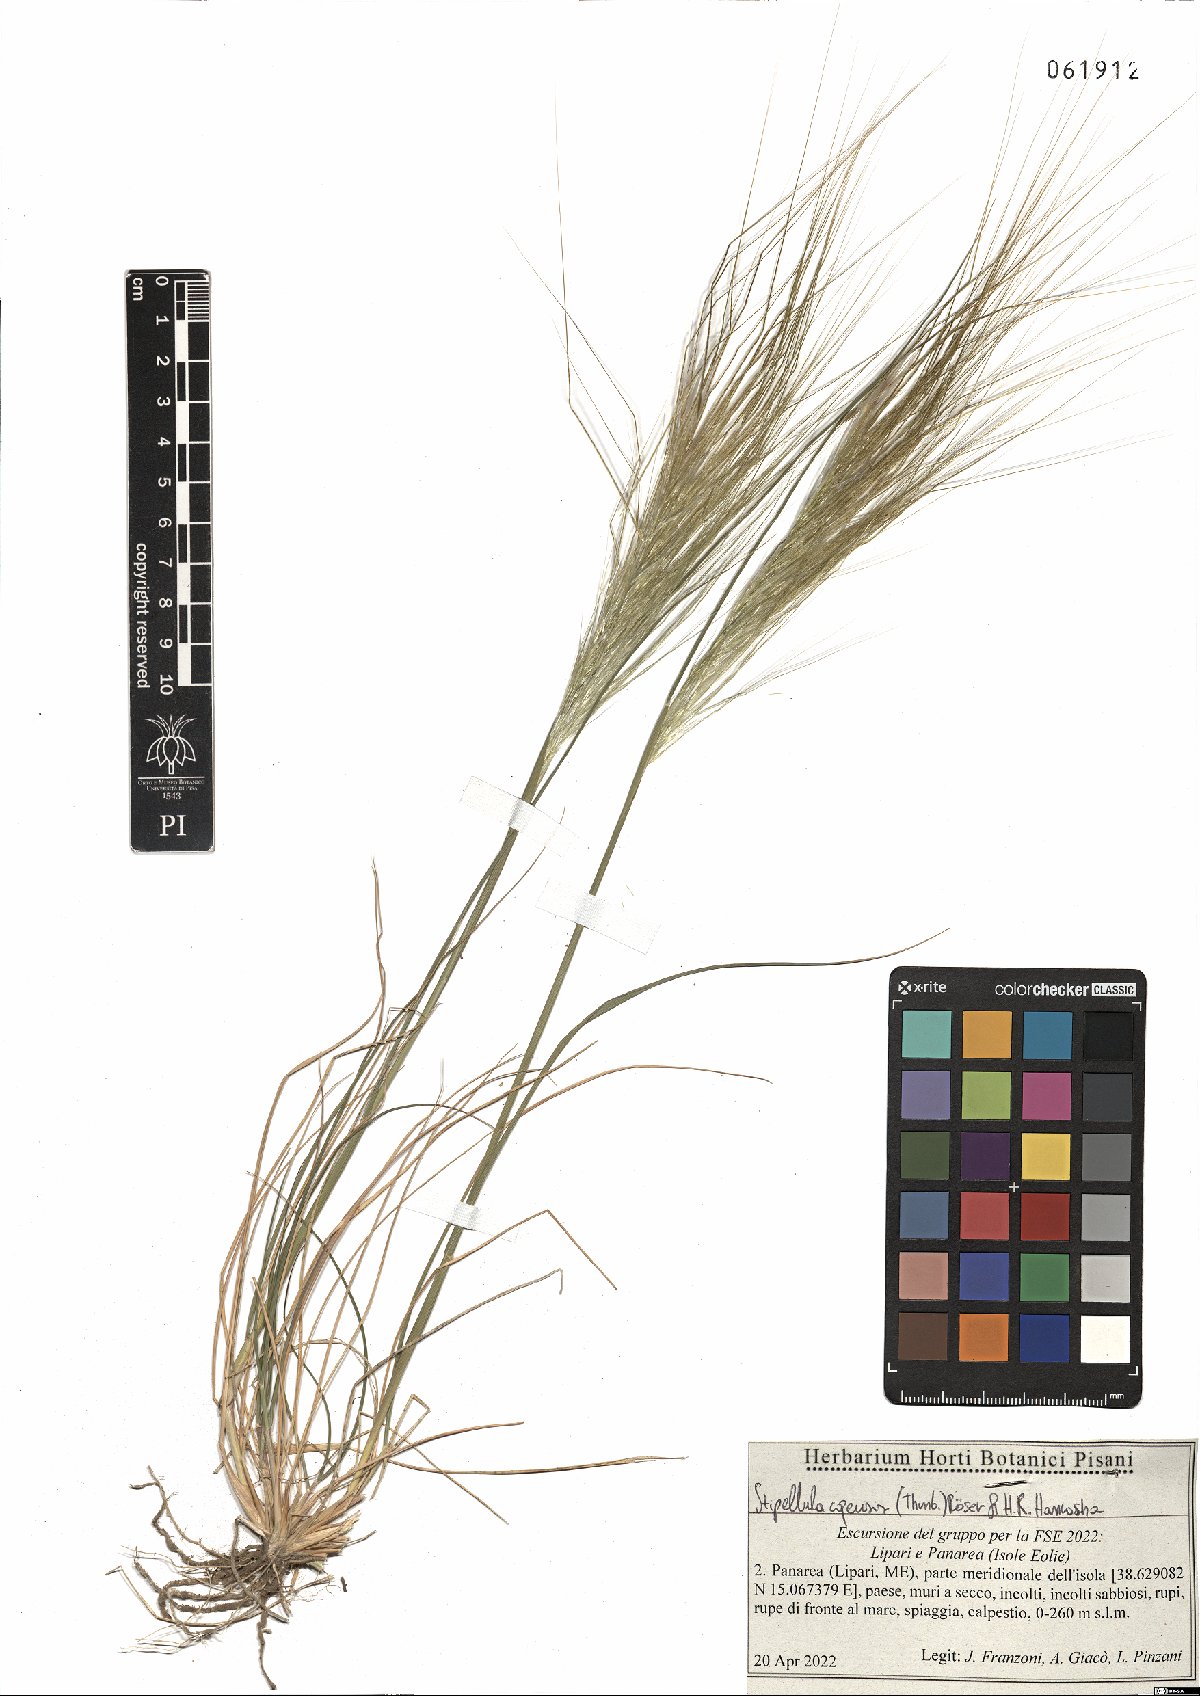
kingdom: Plantae
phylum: Tracheophyta
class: Liliopsida
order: Poales
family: Poaceae
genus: Stipellula
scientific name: Stipellula capensis
